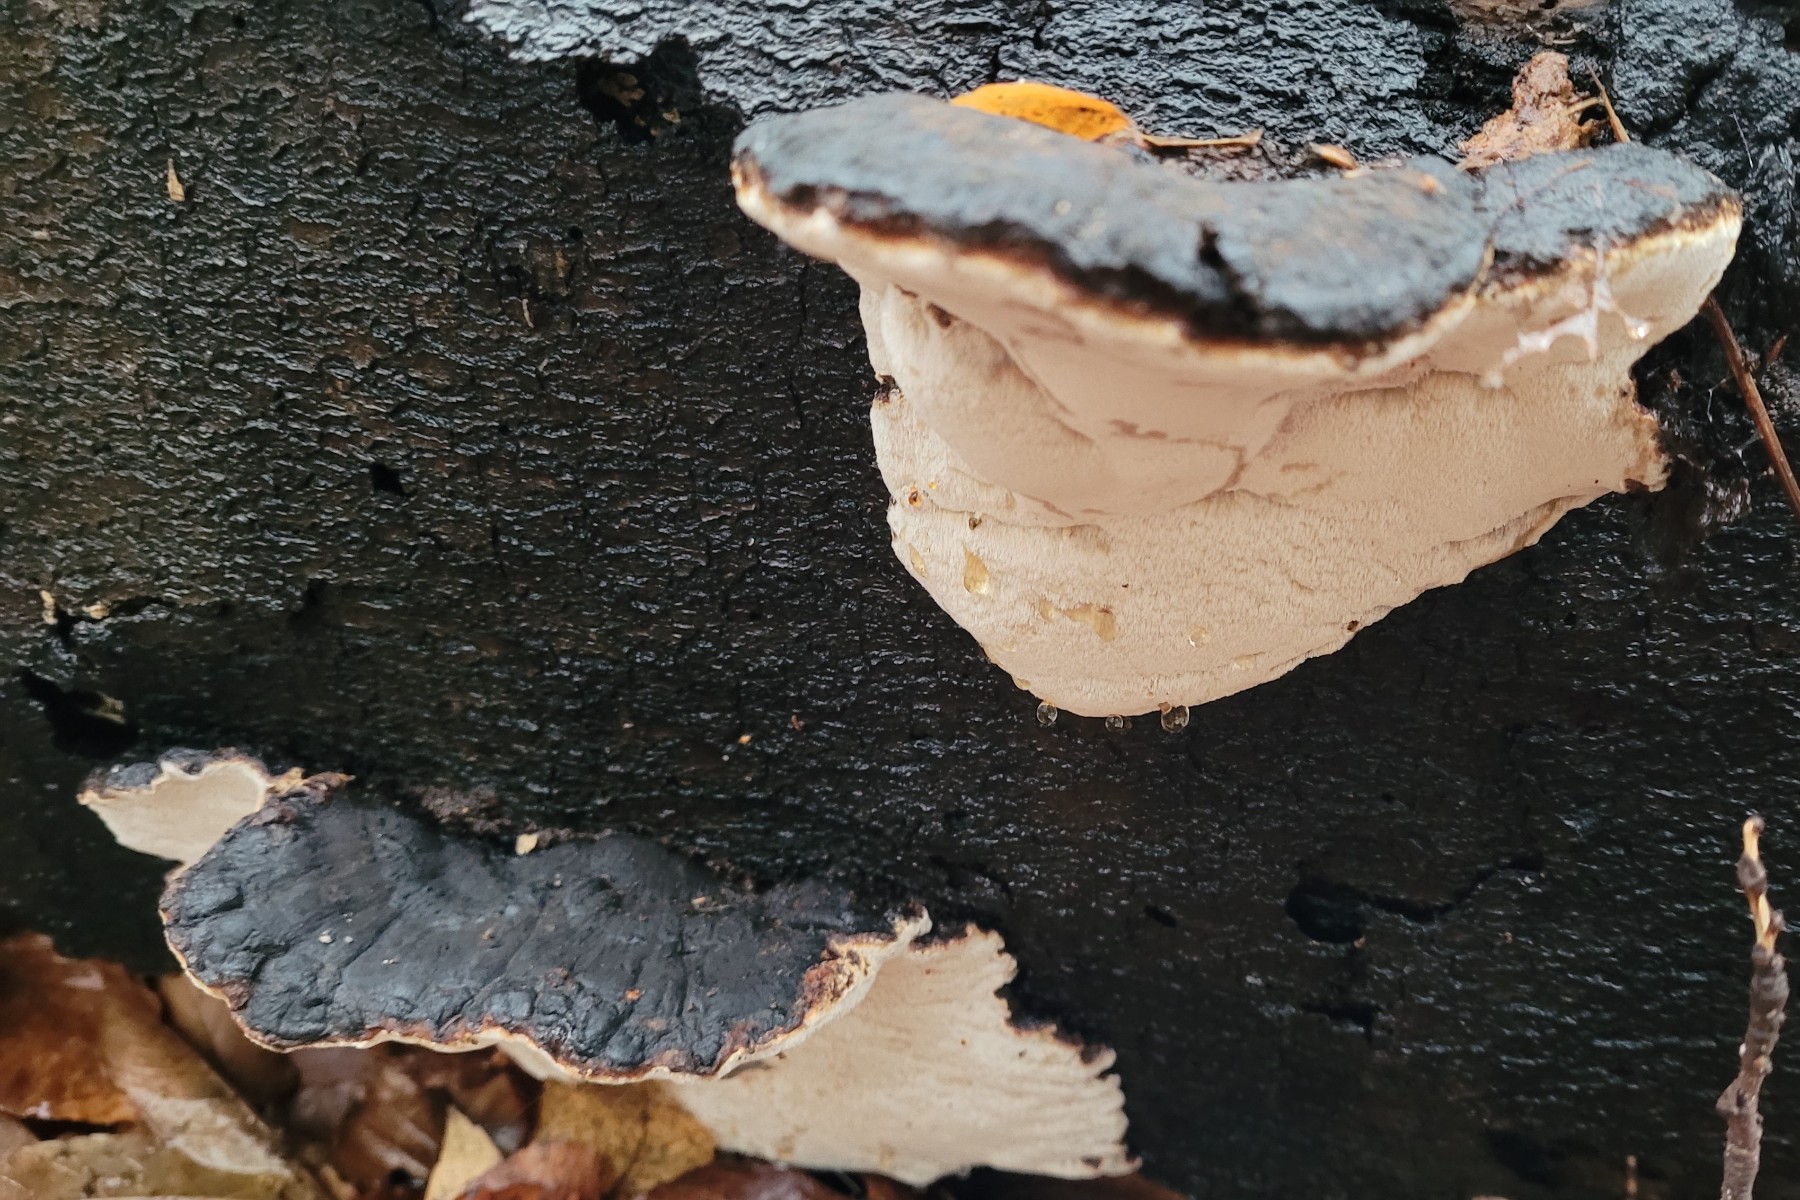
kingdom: Fungi
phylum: Basidiomycota
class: Agaricomycetes
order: Polyporales
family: Ischnodermataceae
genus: Ischnoderma
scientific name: Ischnoderma resinosum
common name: løv-tjæreporesvamp
